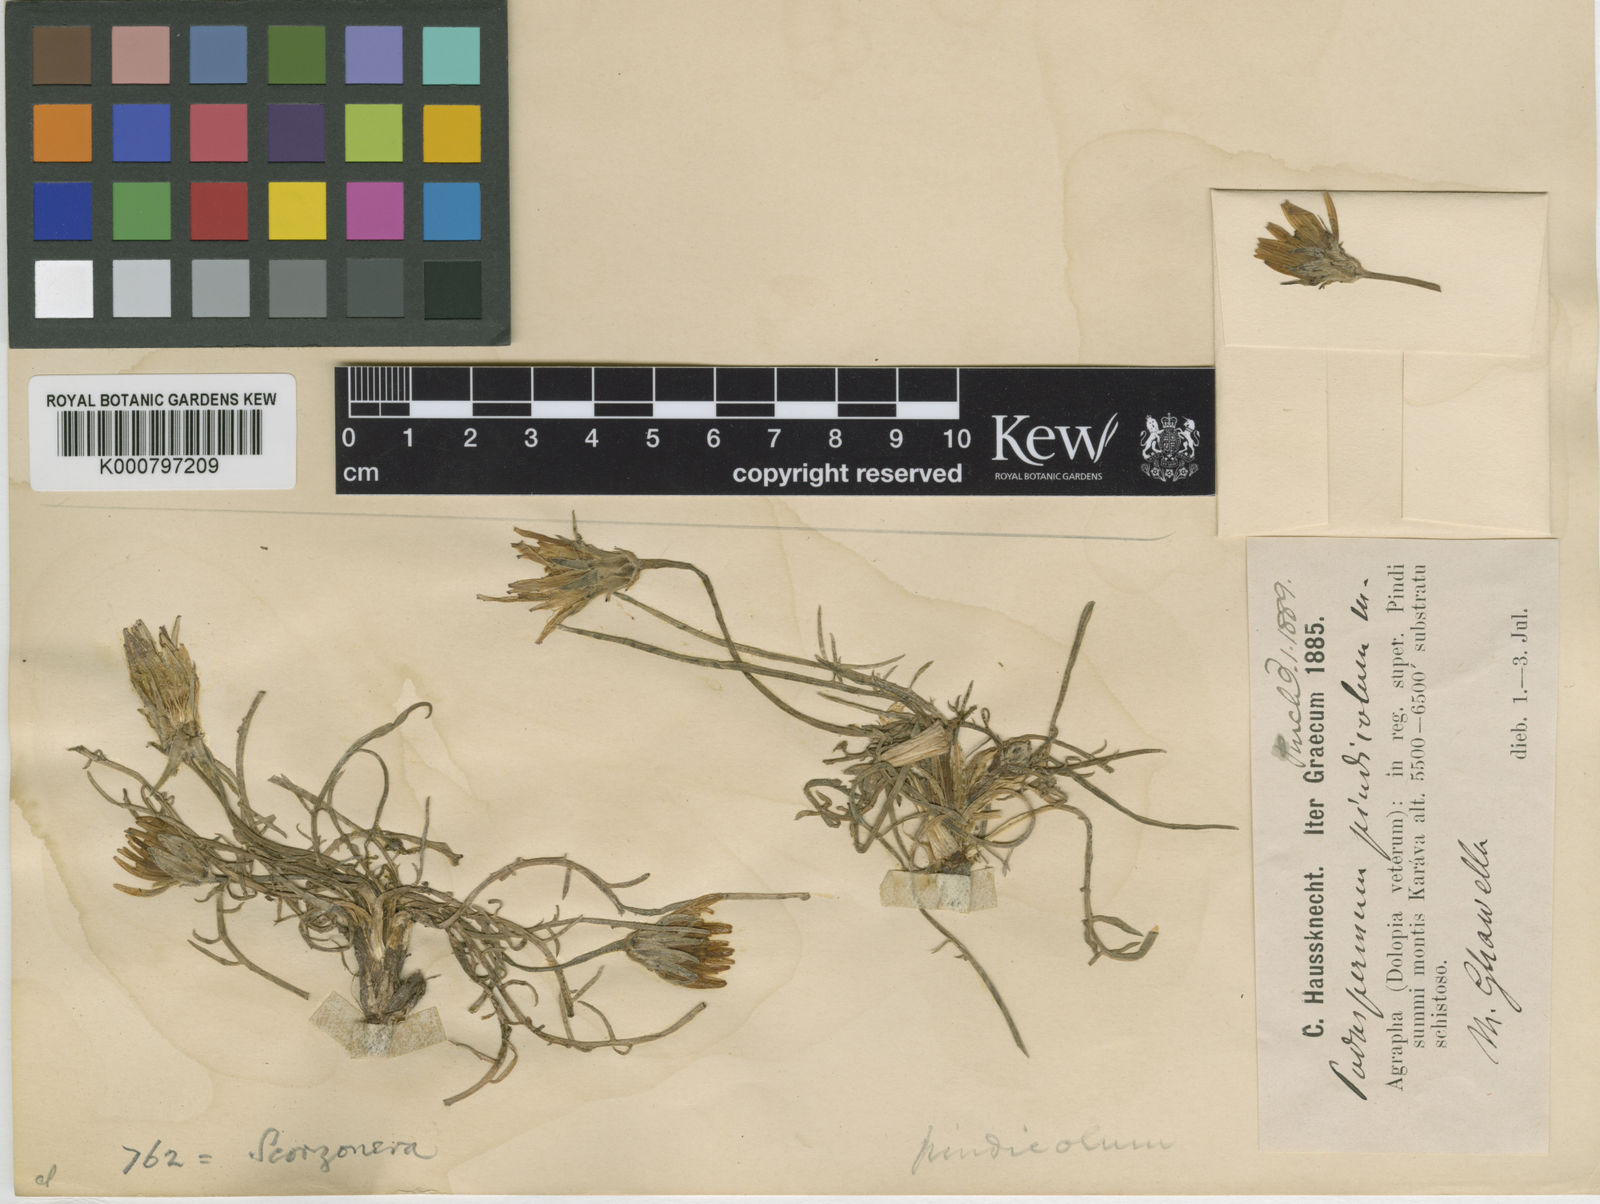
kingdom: Plantae
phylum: Tracheophyta
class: Magnoliopsida
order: Asterales
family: Asteraceae
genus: Scorzonera
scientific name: Scorzonera alpigena
